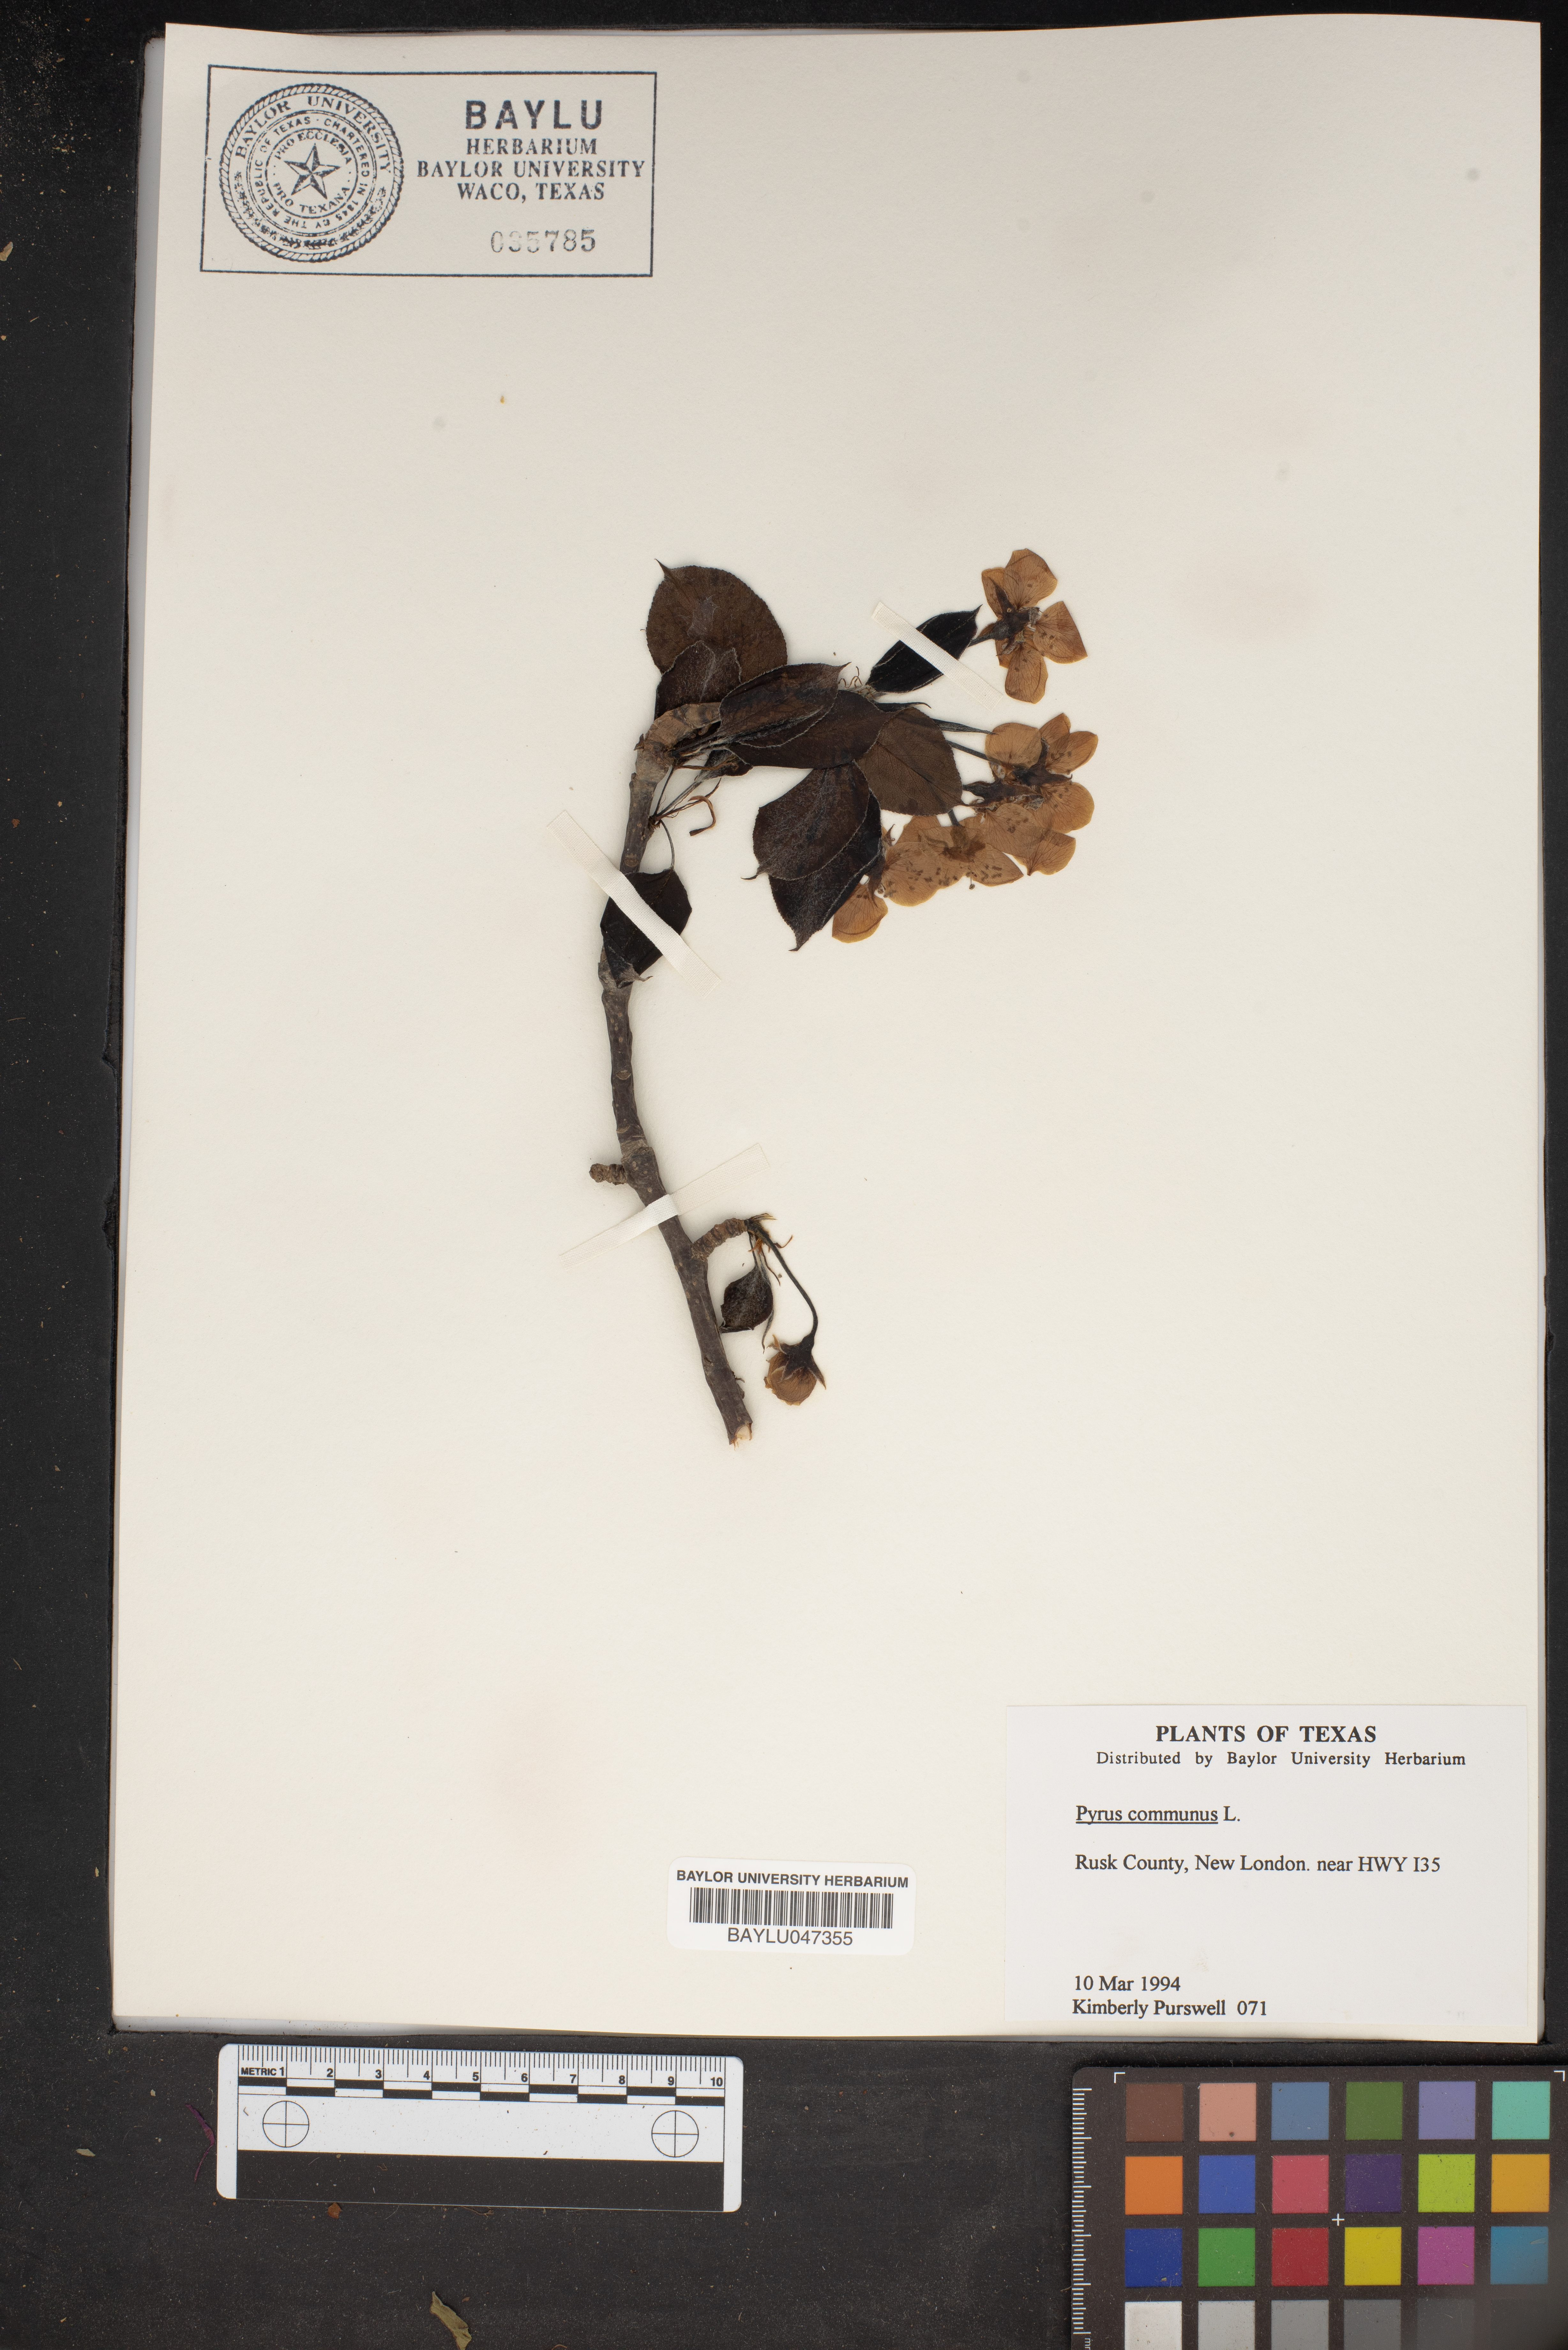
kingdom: Plantae
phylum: Tracheophyta
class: Magnoliopsida
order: Rosales
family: Rosaceae
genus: Pyrus
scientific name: Pyrus communis
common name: Pear
